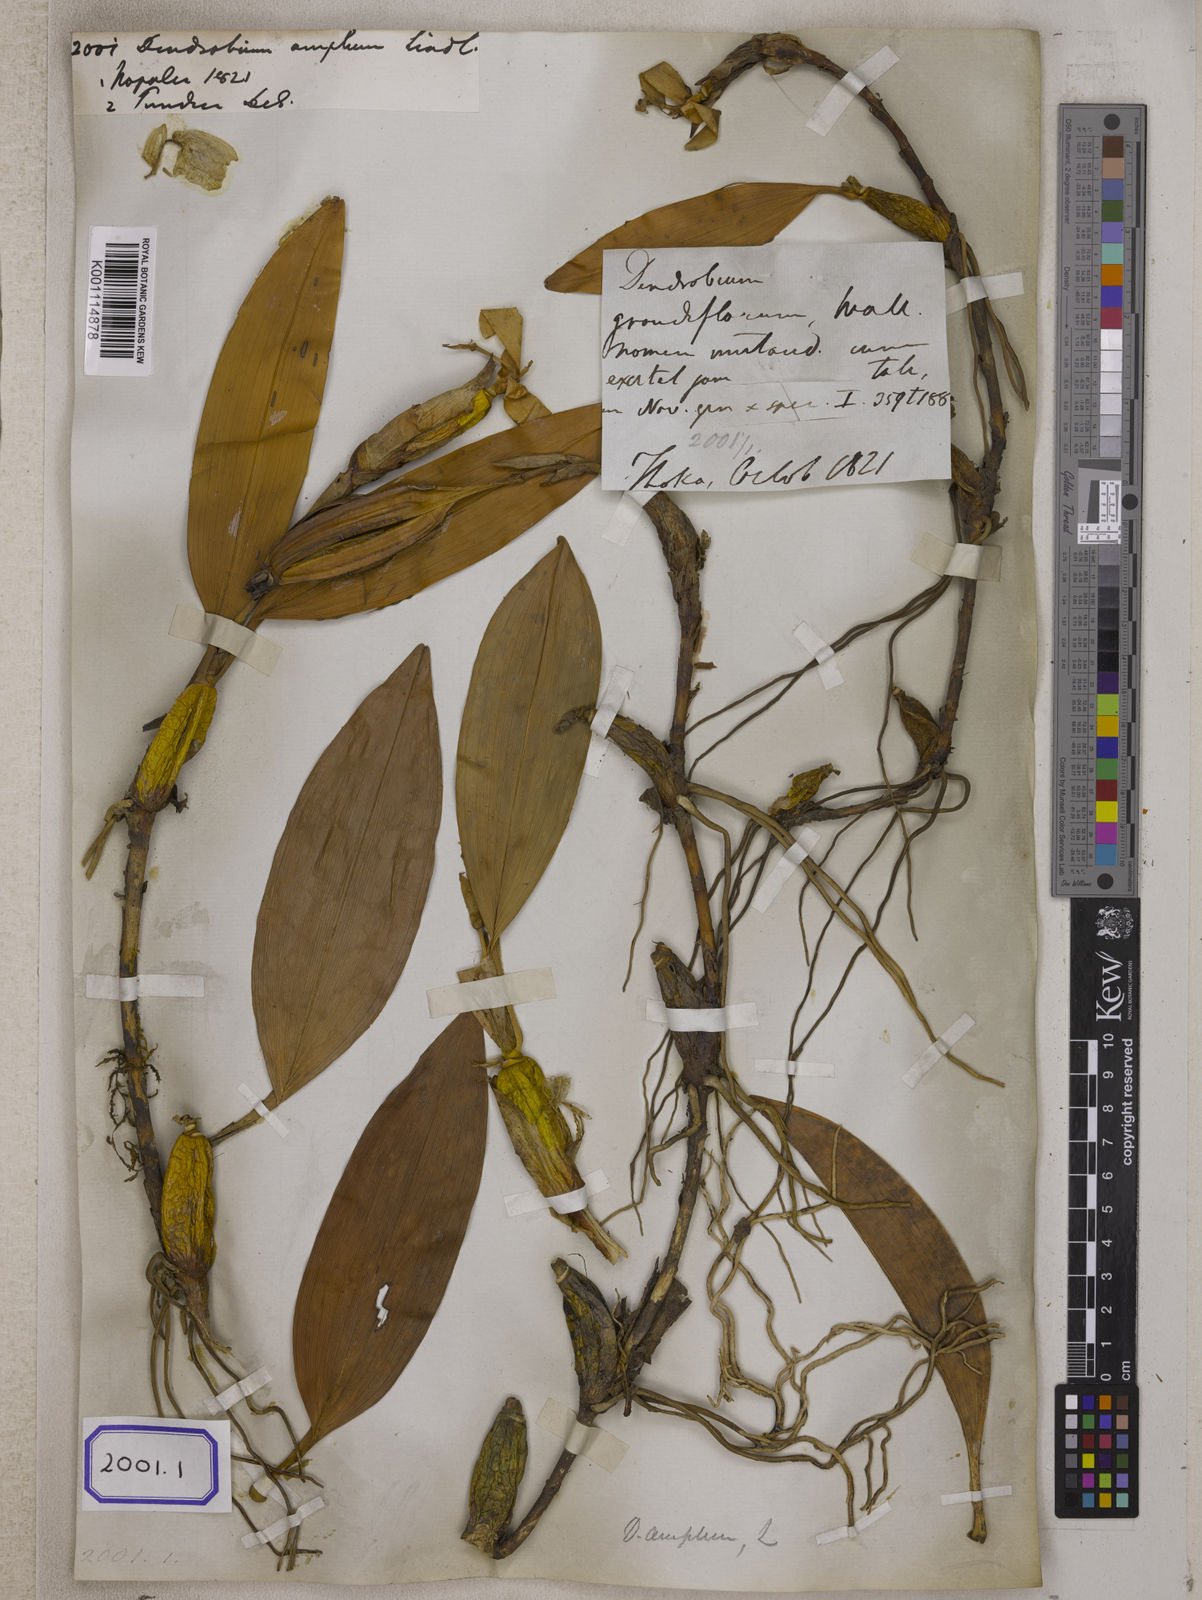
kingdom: Plantae
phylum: Tracheophyta
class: Liliopsida
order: Asparagales
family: Orchidaceae
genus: Dendrobium
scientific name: Dendrobium angulatum
